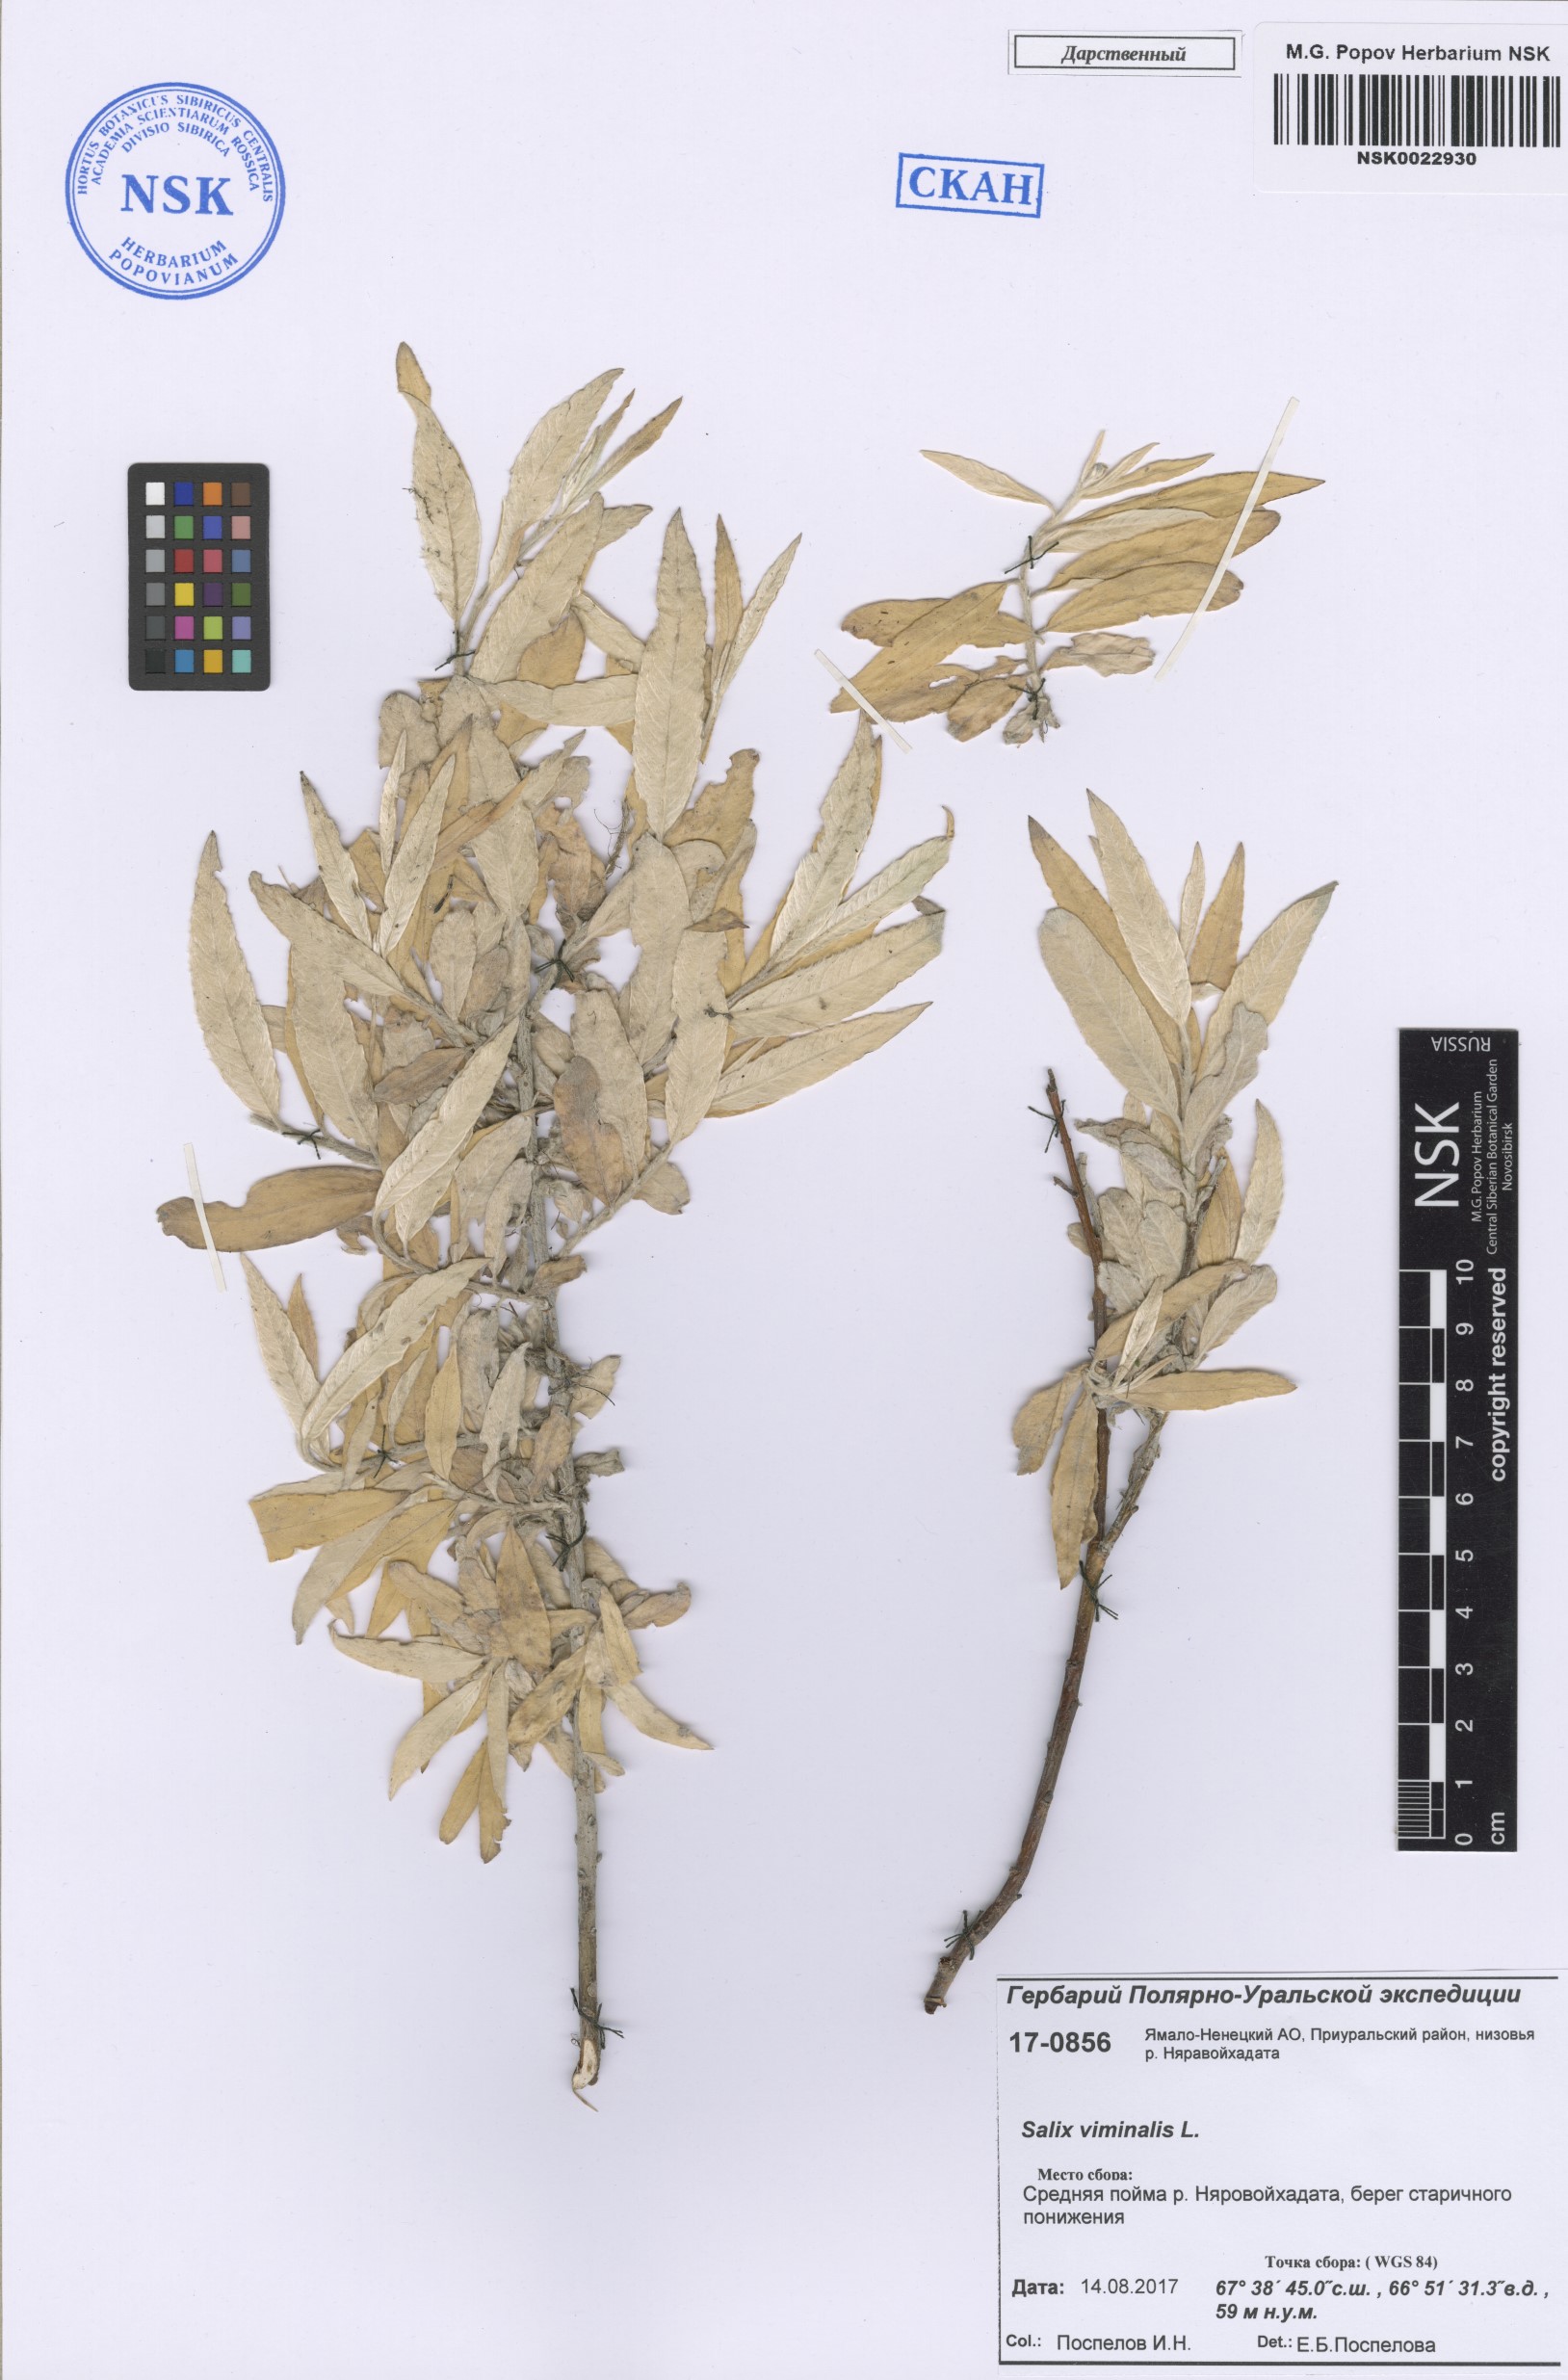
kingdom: Plantae
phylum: Tracheophyta
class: Magnoliopsida
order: Malpighiales
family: Salicaceae
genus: Salix
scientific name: Salix viminalis
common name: Osier
